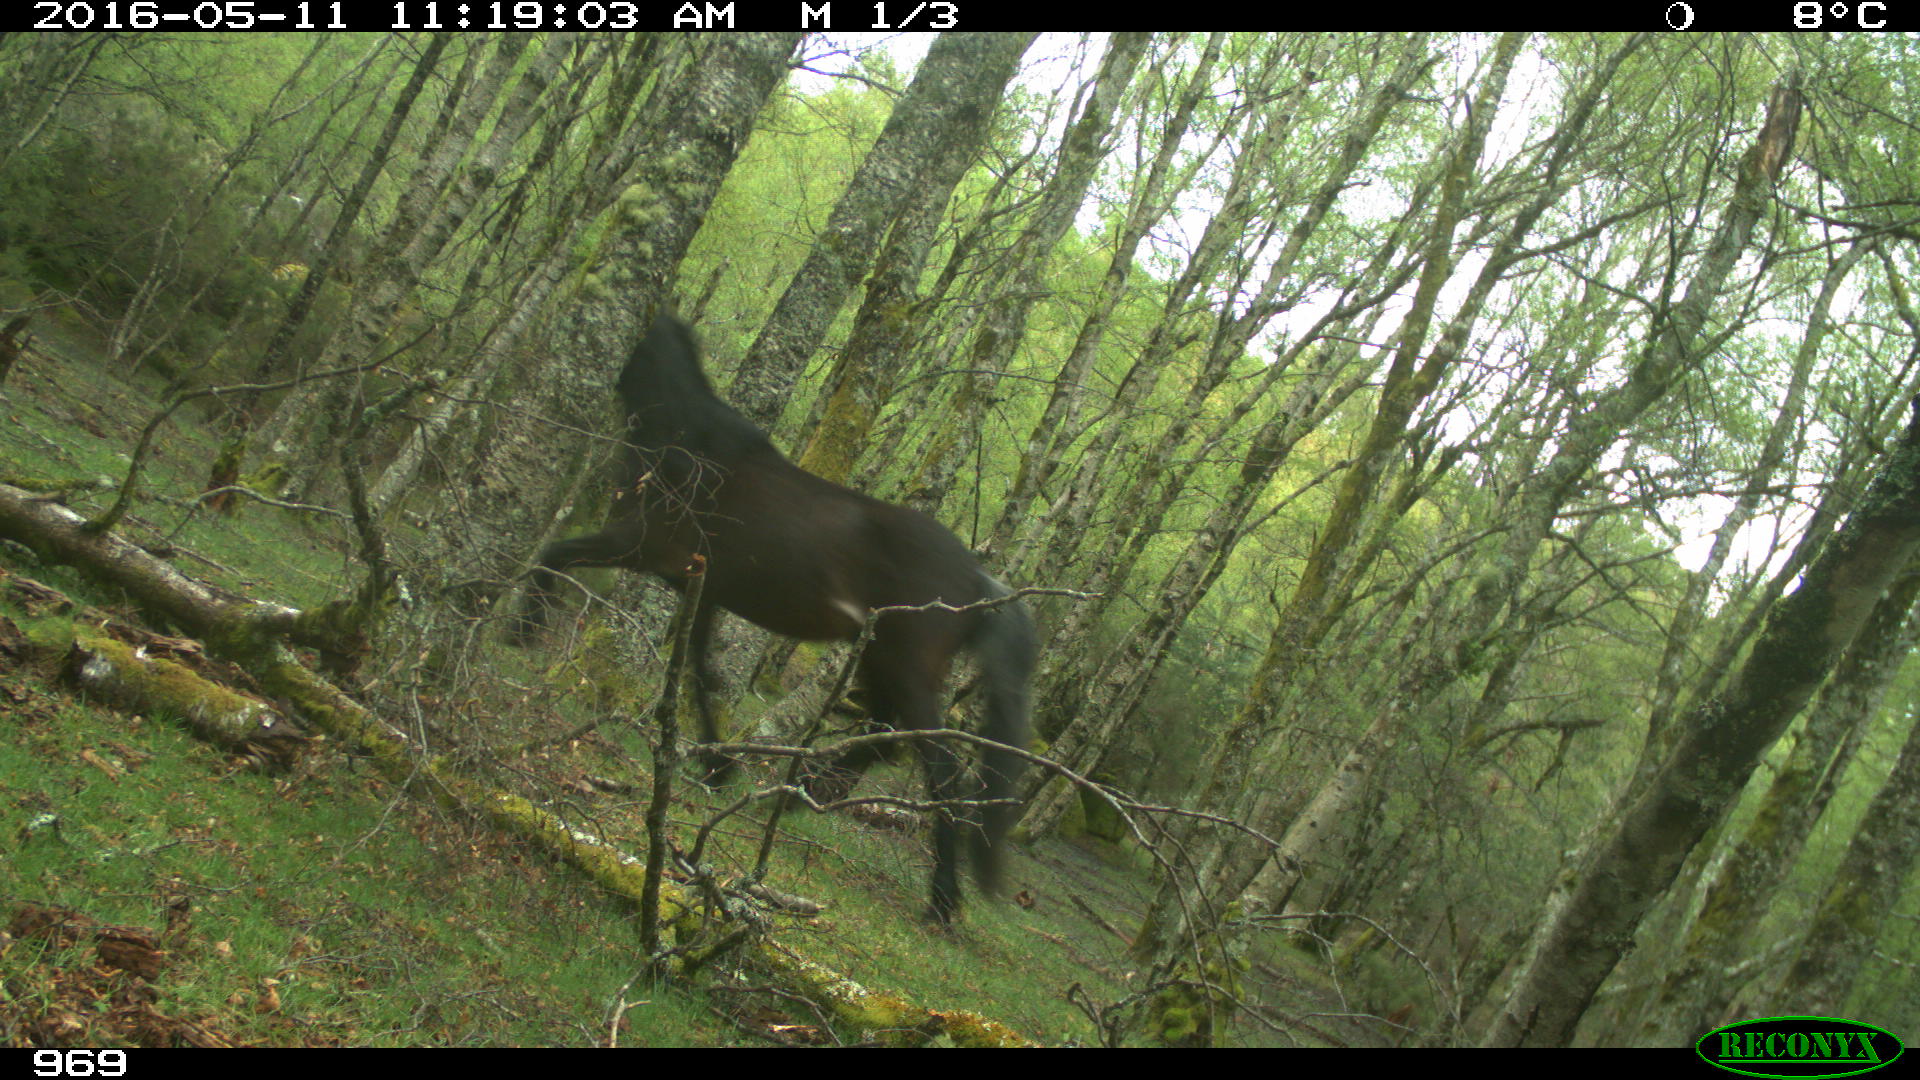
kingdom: Animalia
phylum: Chordata
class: Mammalia
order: Perissodactyla
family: Equidae
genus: Equus
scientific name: Equus caballus
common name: Horse
